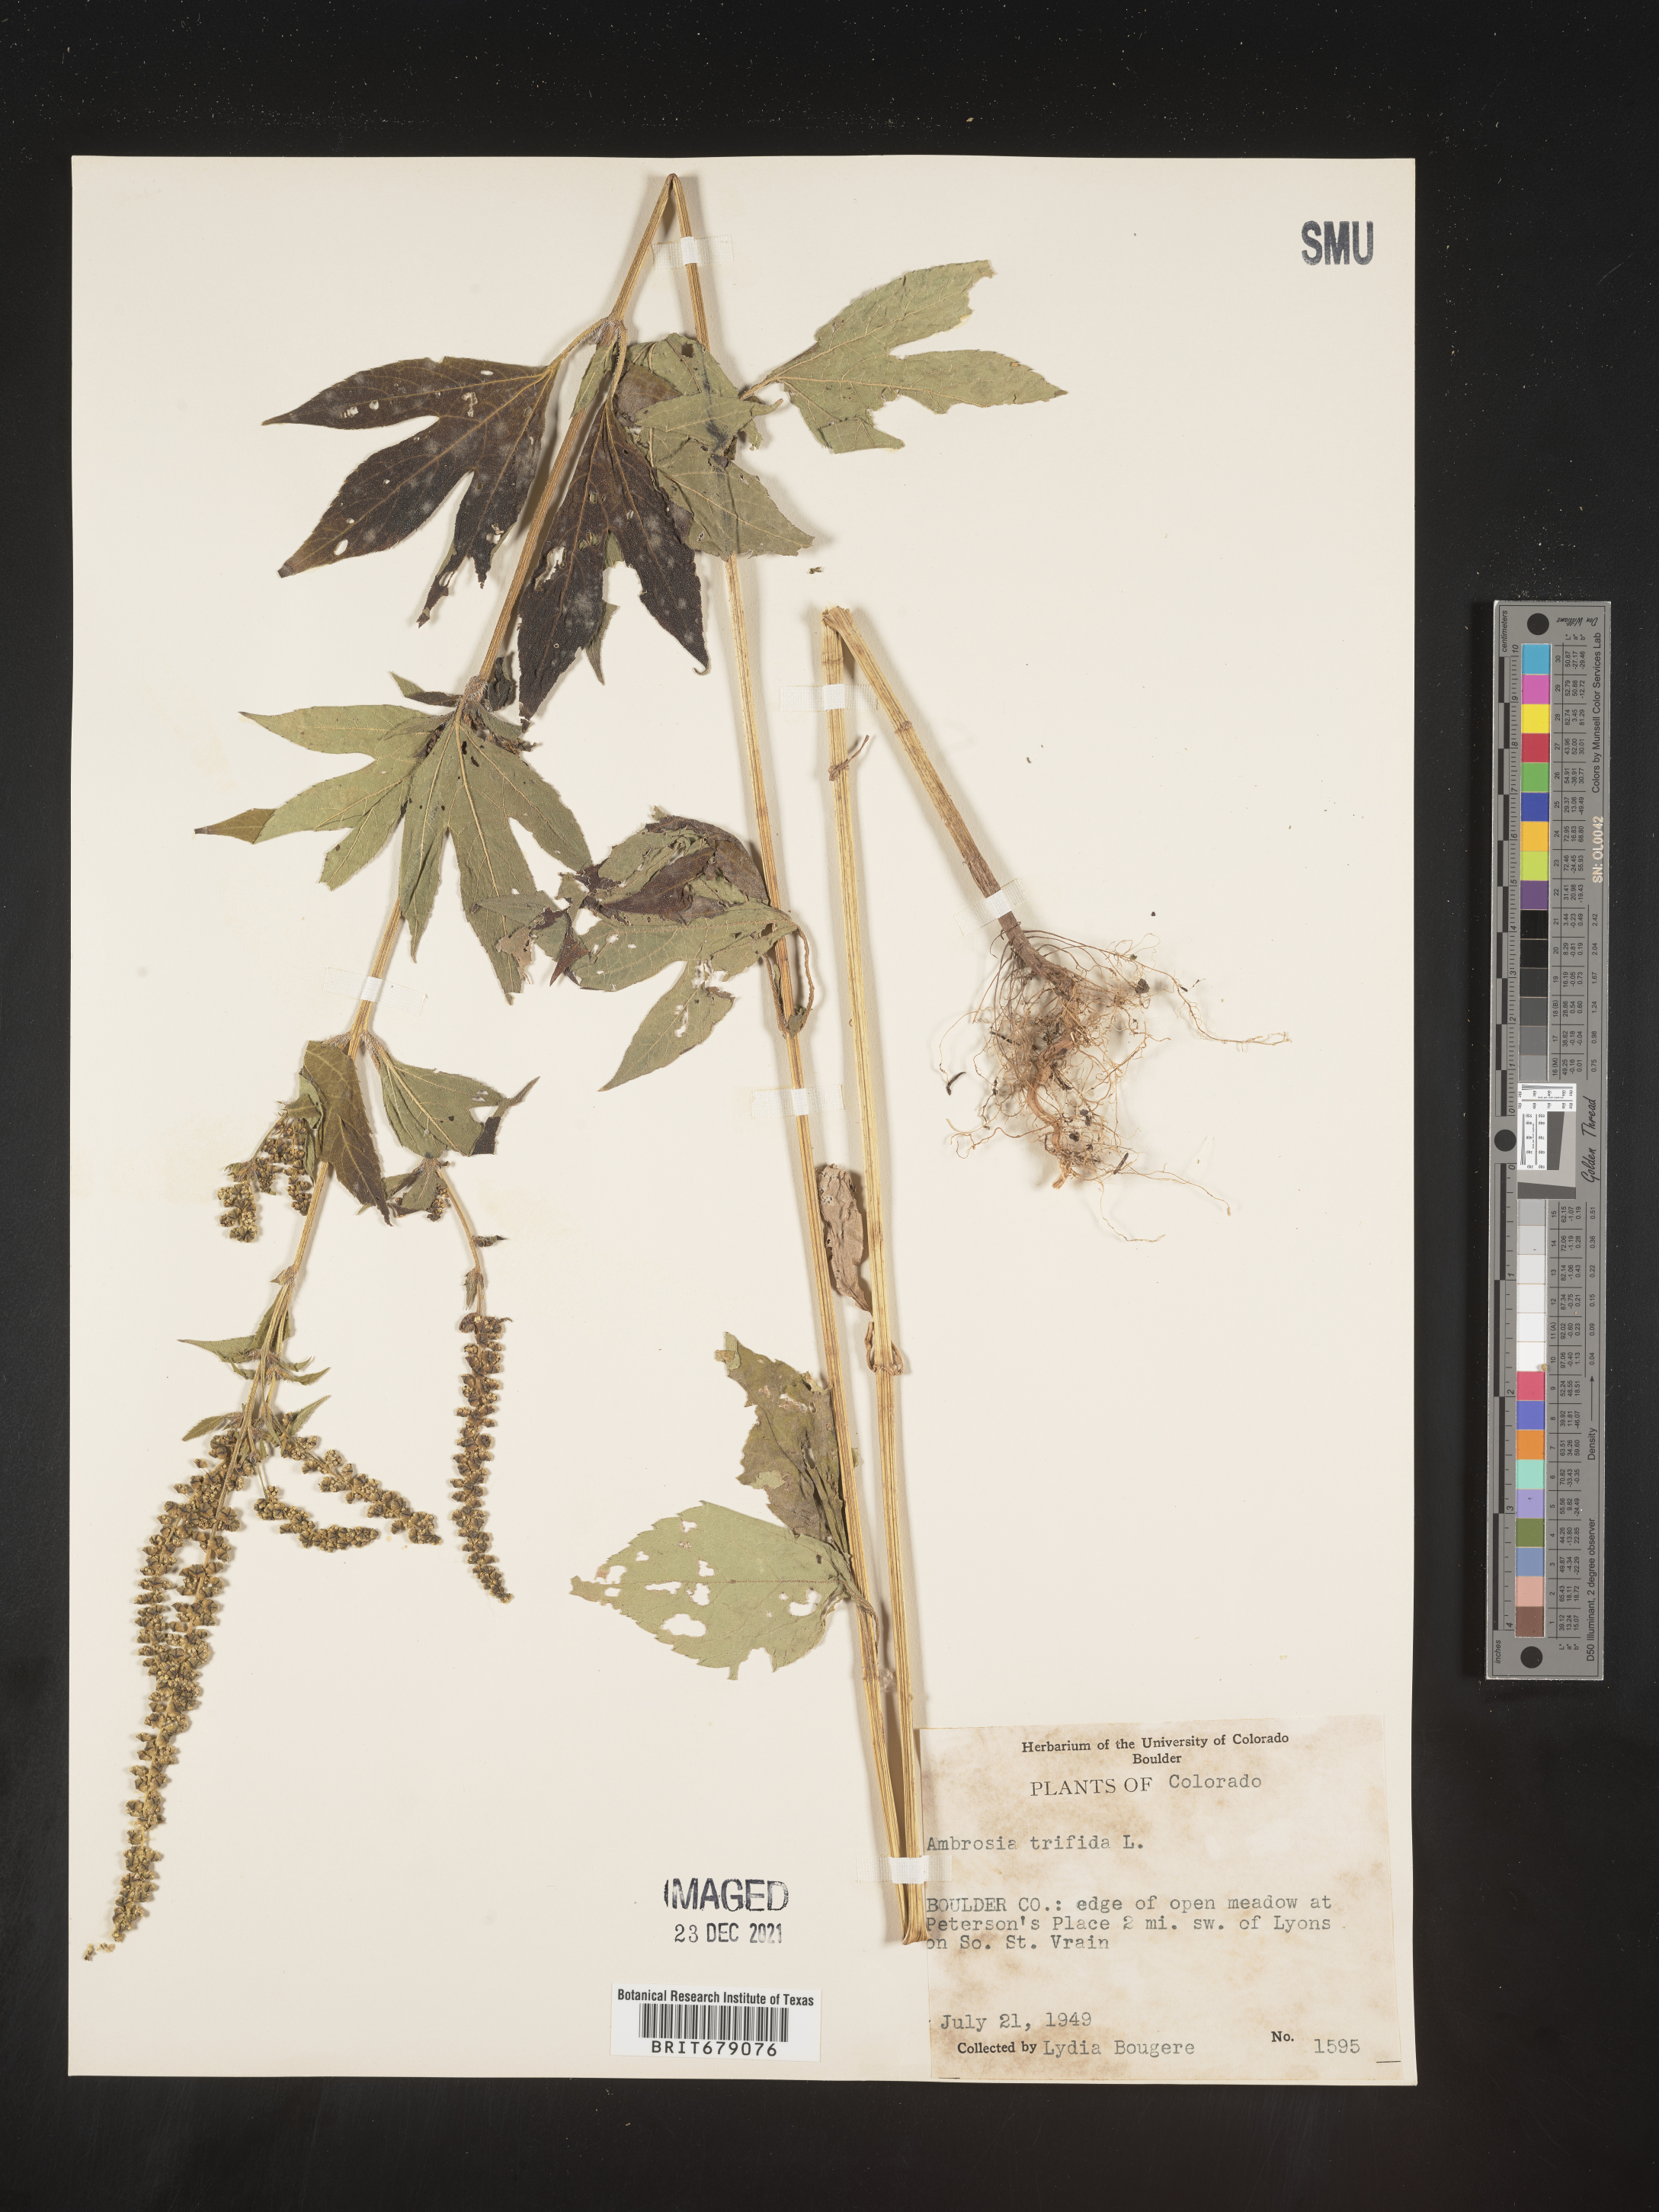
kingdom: Plantae
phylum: Tracheophyta
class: Magnoliopsida
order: Asterales
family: Asteraceae
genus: Ambrosia
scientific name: Ambrosia trifida
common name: Giant ragweed
